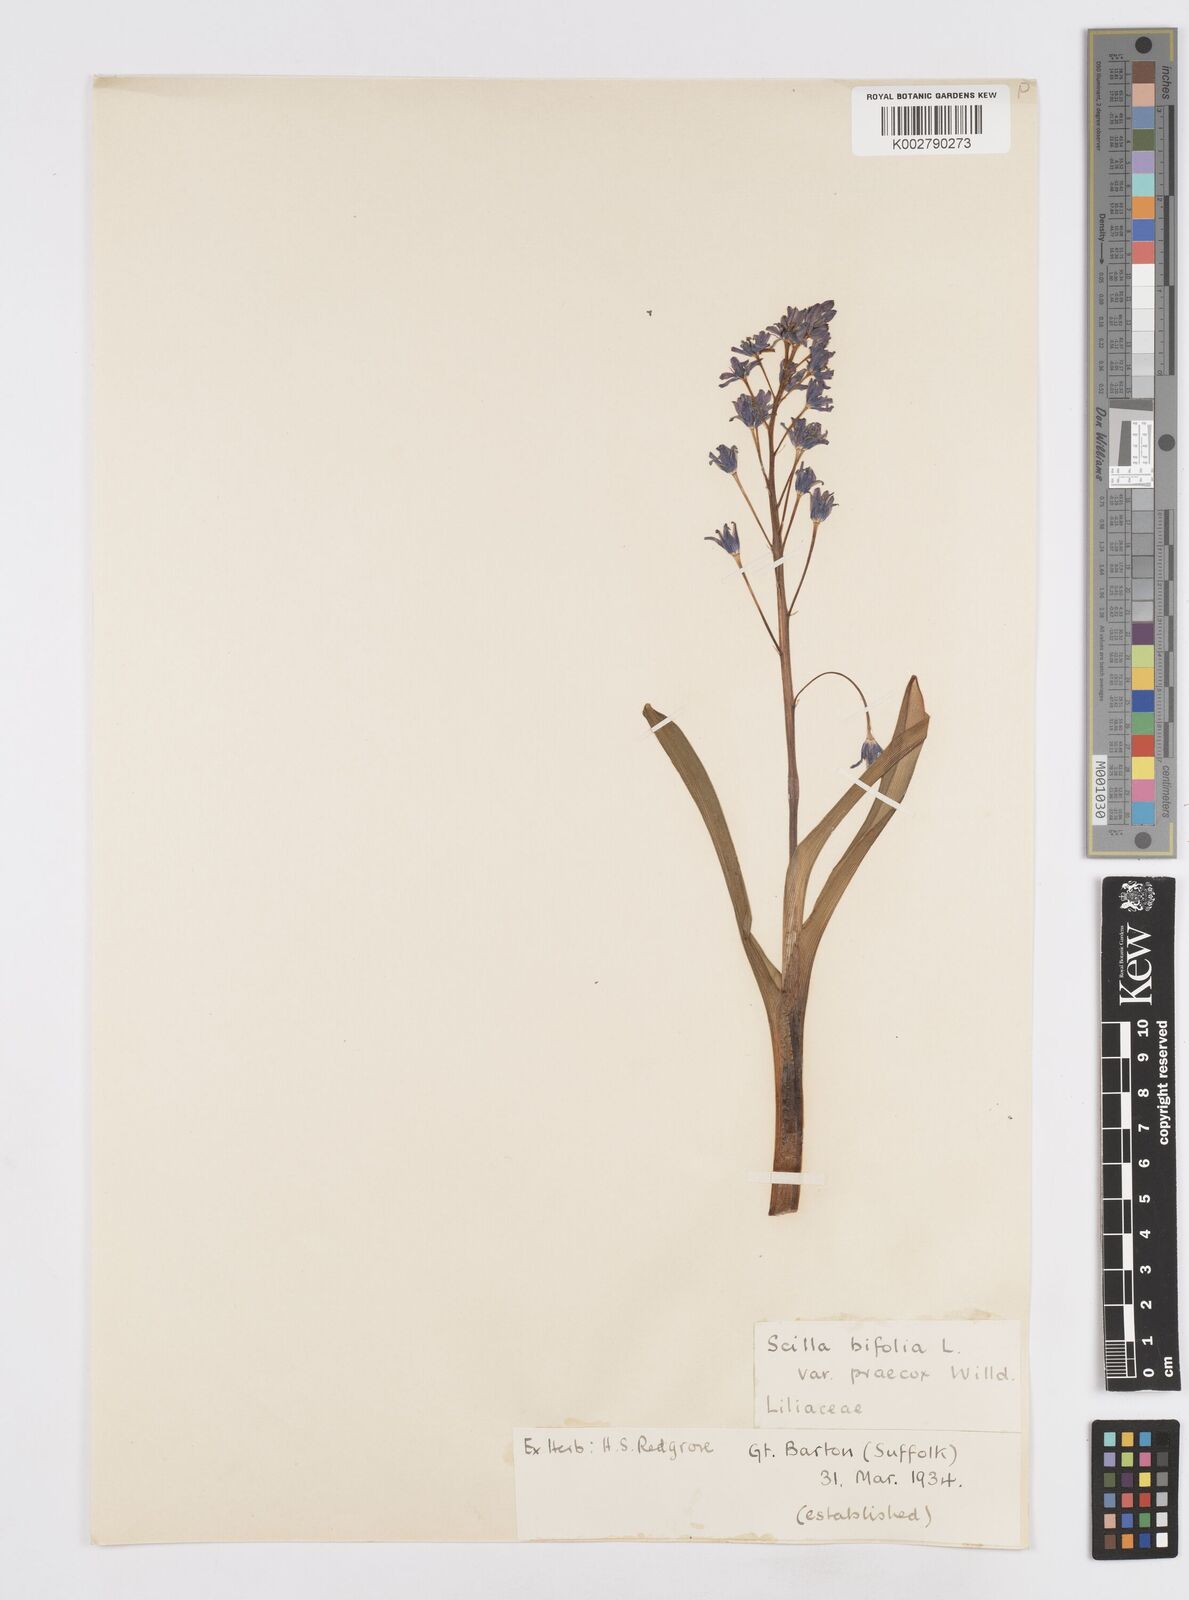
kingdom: Plantae
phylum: Tracheophyta
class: Liliopsida
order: Asparagales
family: Asparagaceae
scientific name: Asparagaceae
